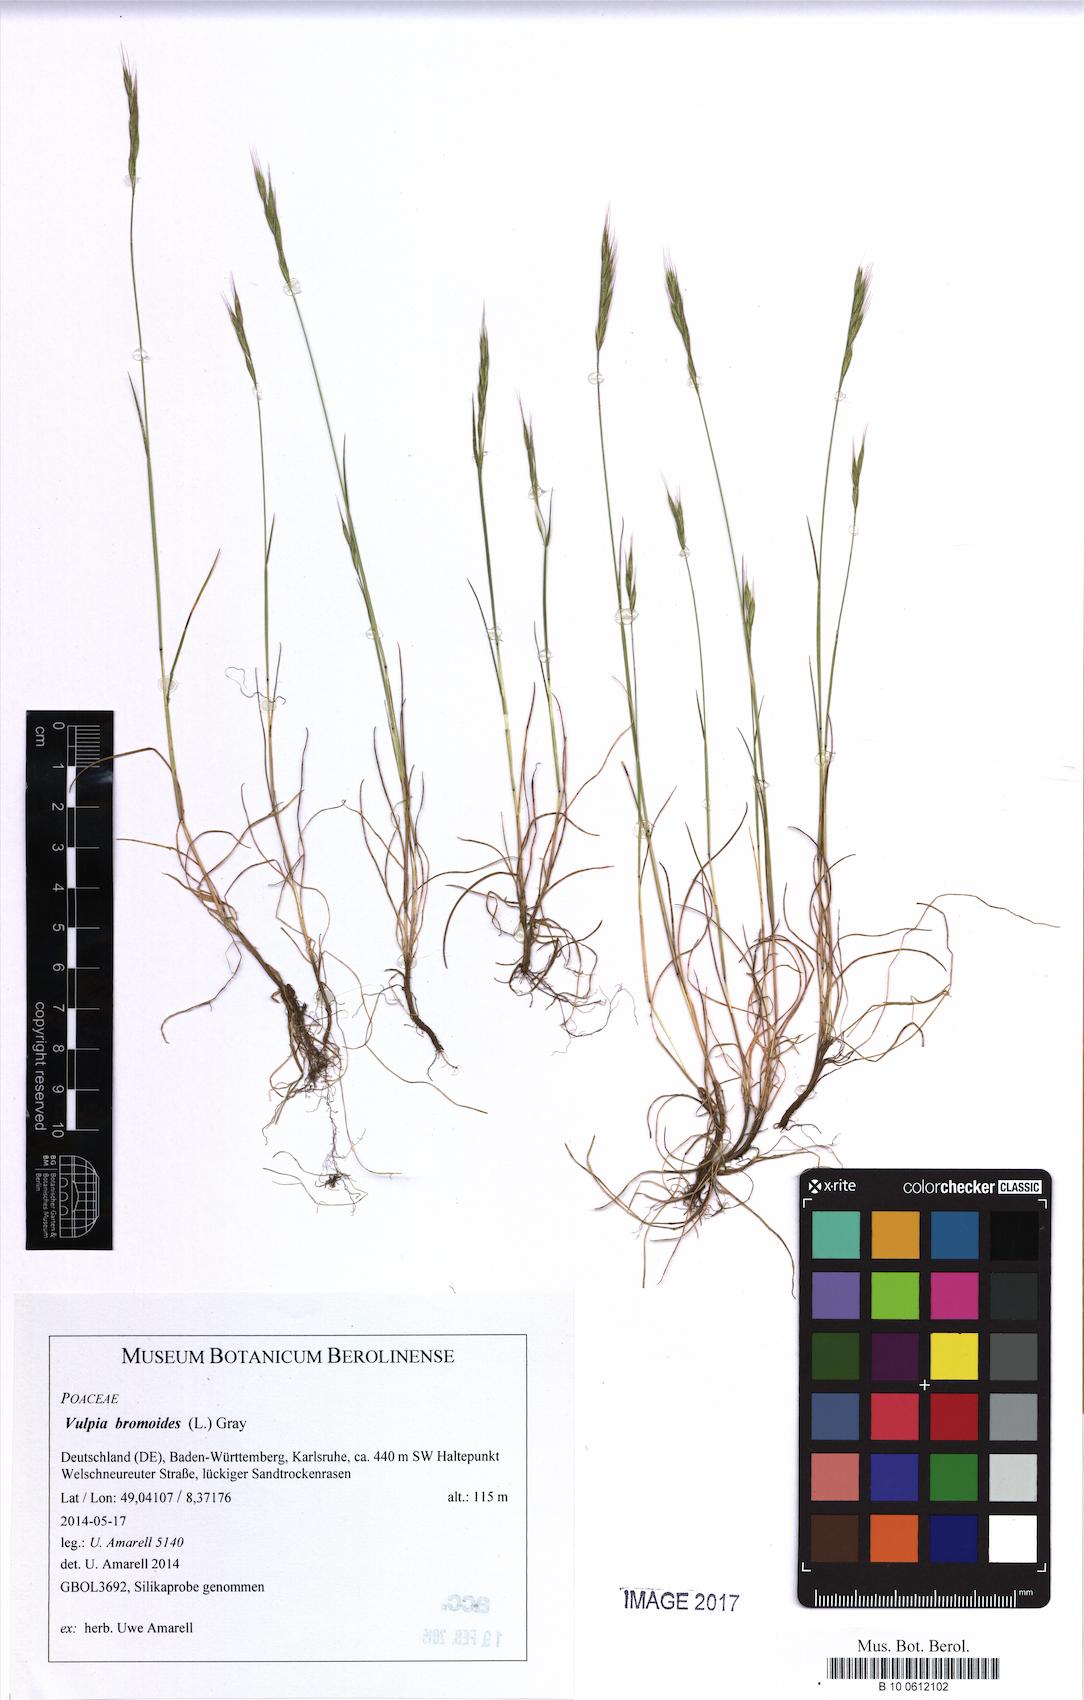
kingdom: Plantae
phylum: Tracheophyta
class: Liliopsida
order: Poales
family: Poaceae
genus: Festuca
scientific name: Festuca bromoides
